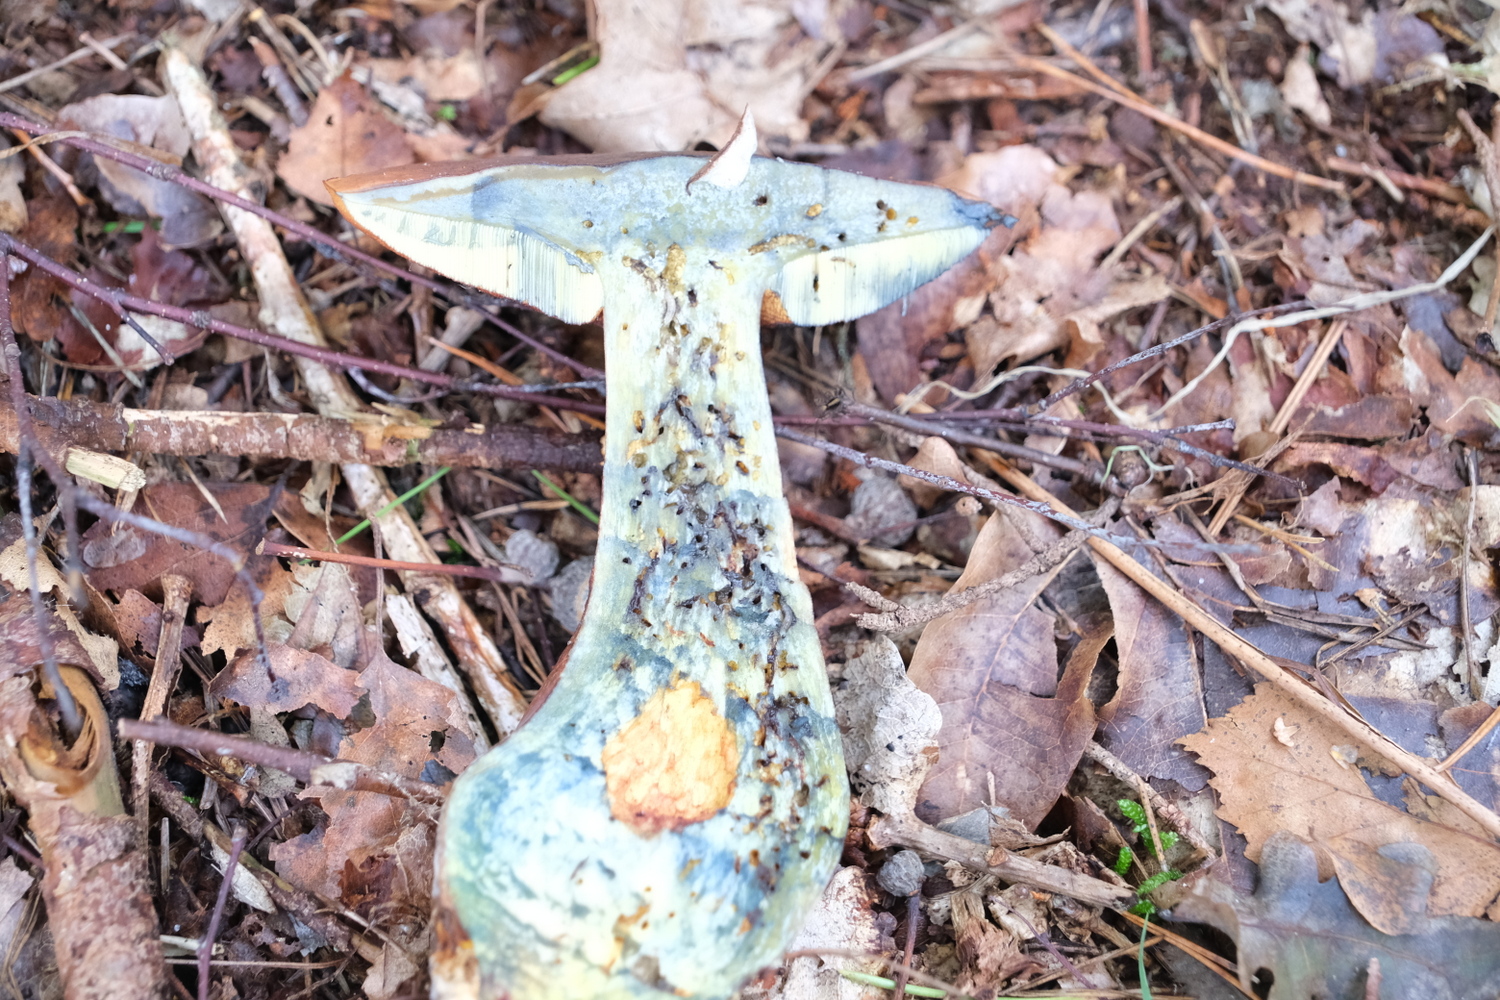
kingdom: Fungi
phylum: Basidiomycota
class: Agaricomycetes
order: Boletales
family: Boletaceae
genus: Neoboletus
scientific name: Neoboletus erythropus
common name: punktstokket indigorørhat
